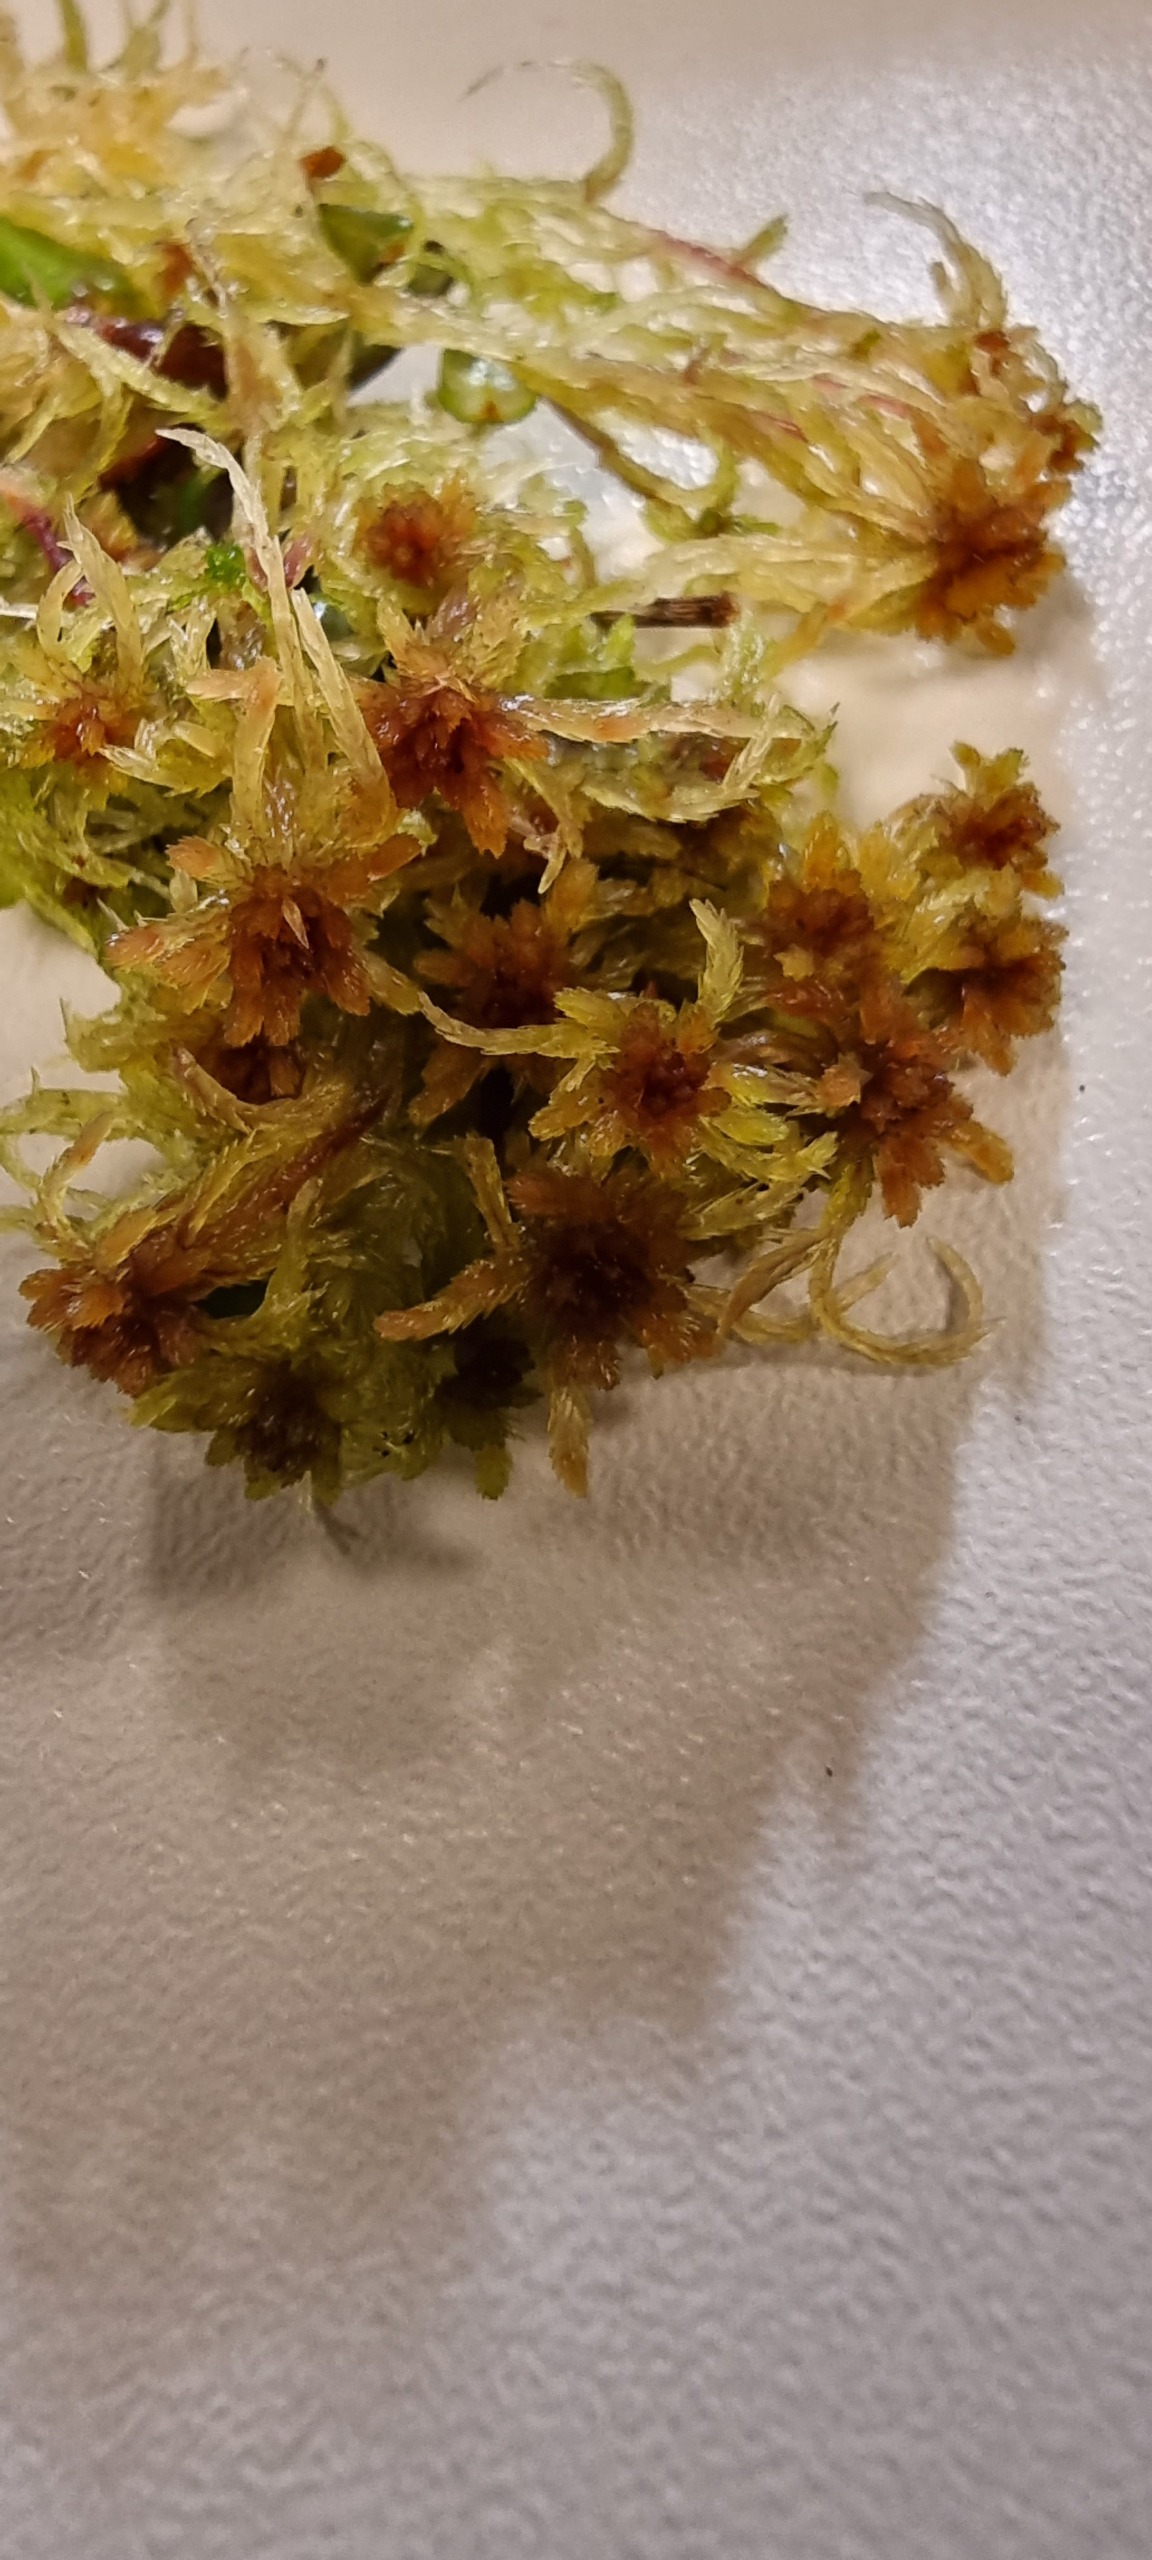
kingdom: Plantae
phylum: Bryophyta
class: Sphagnopsida
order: Sphagnales
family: Sphagnaceae
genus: Sphagnum
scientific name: Sphagnum rubellum
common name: Kohorns-tørvemos
